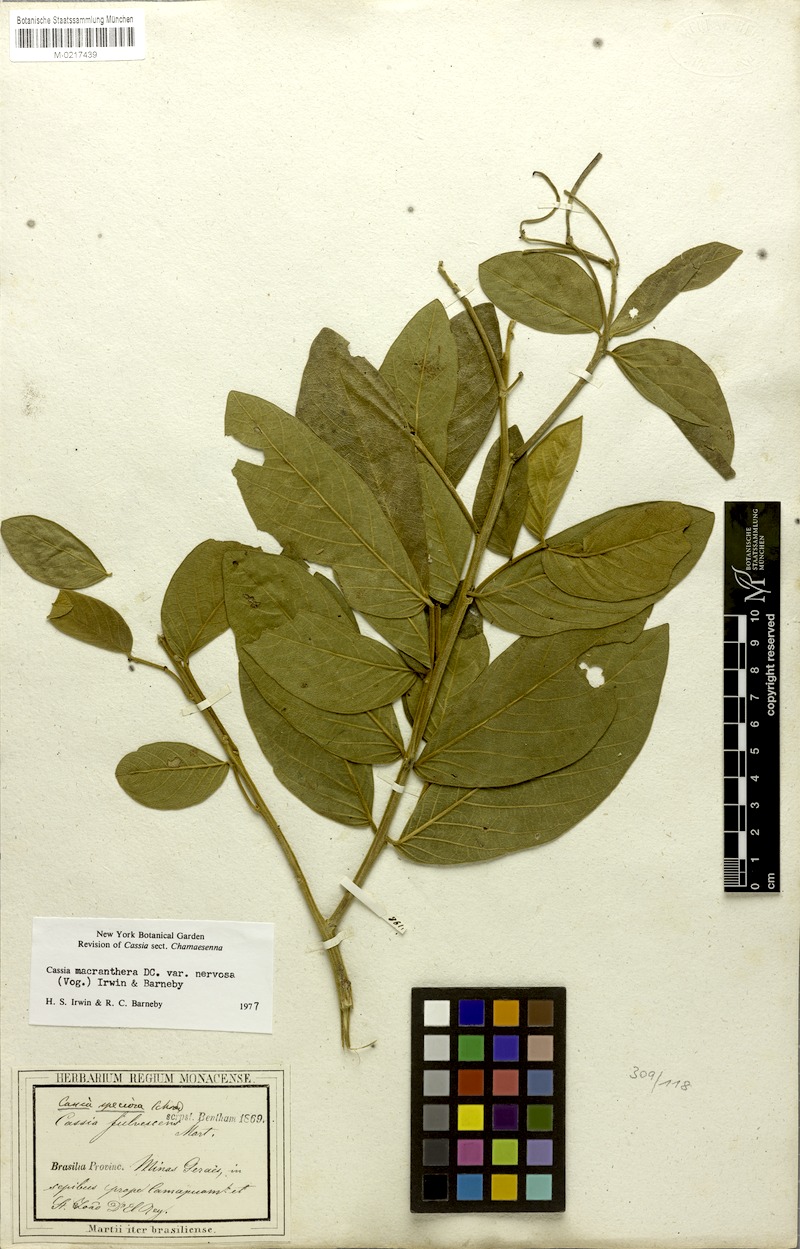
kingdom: Plantae
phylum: Tracheophyta
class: Magnoliopsida
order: Fabales
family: Fabaceae
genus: Cassia
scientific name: Cassia
